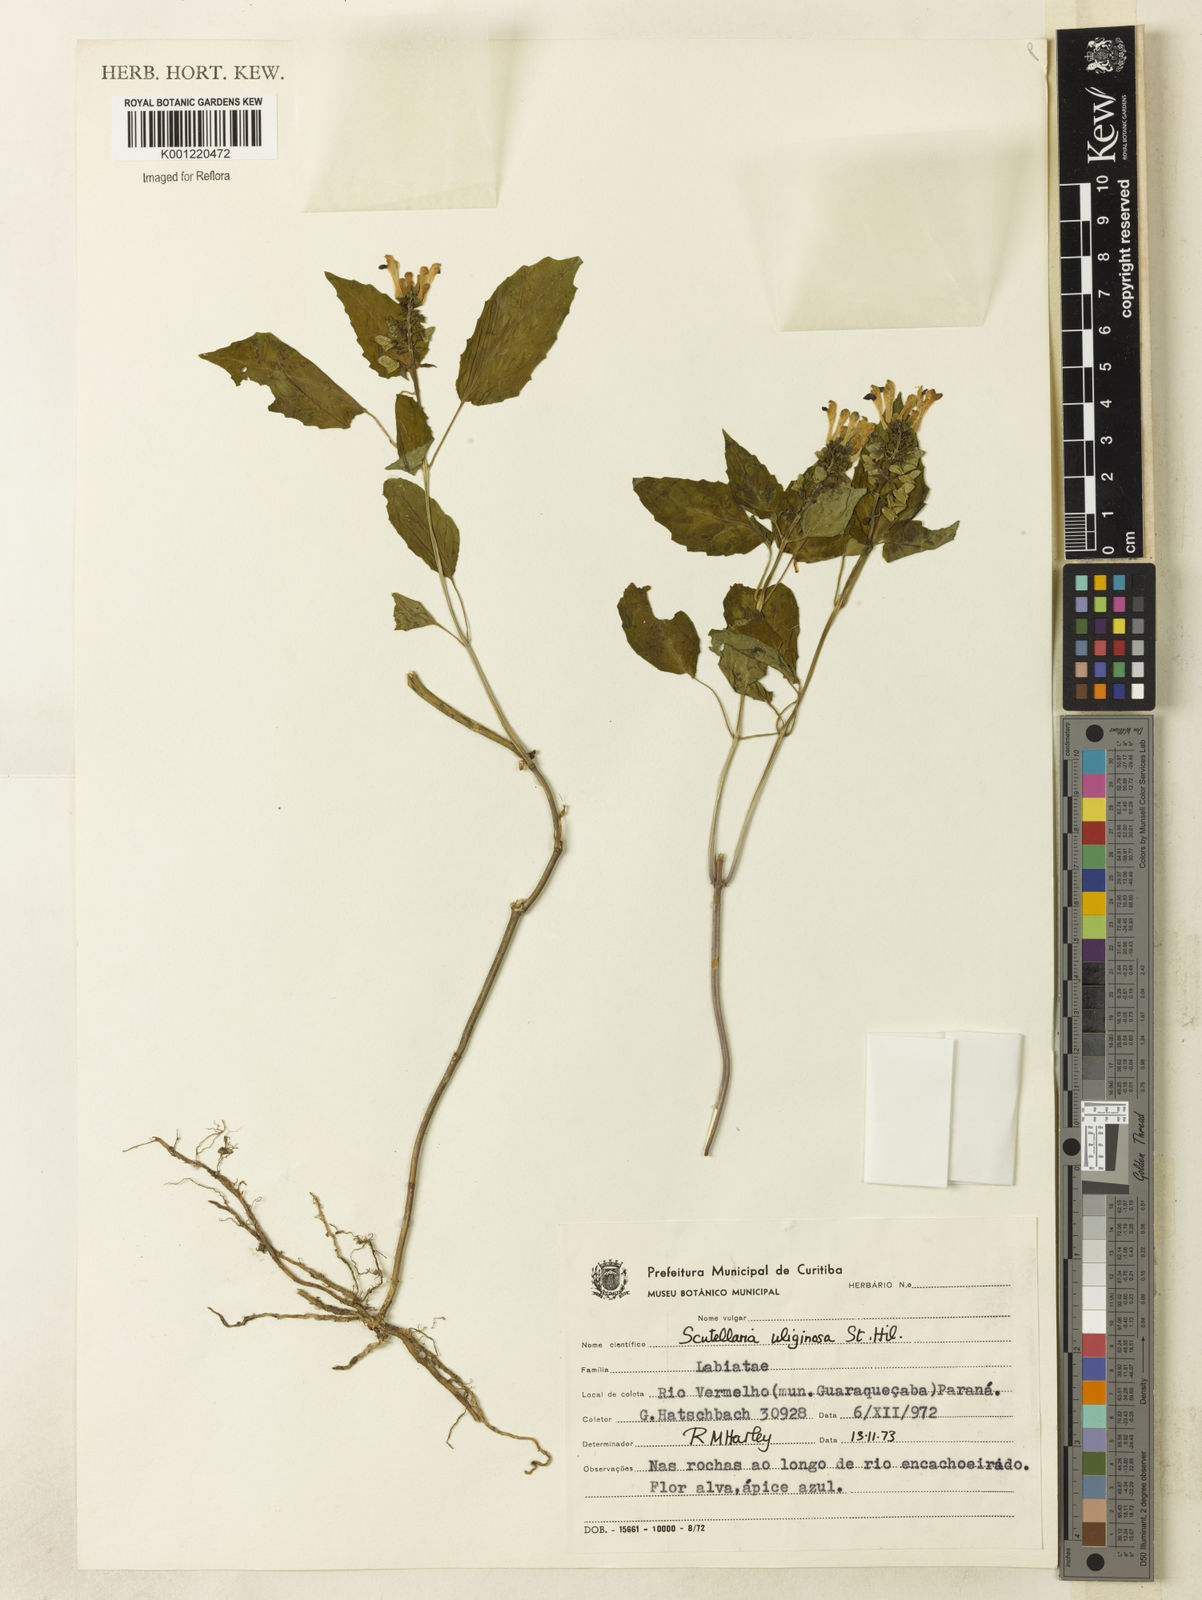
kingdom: Plantae
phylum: Tracheophyta
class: Magnoliopsida
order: Lamiales
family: Lamiaceae
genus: Scutellaria
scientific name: Scutellaria uliginosa
